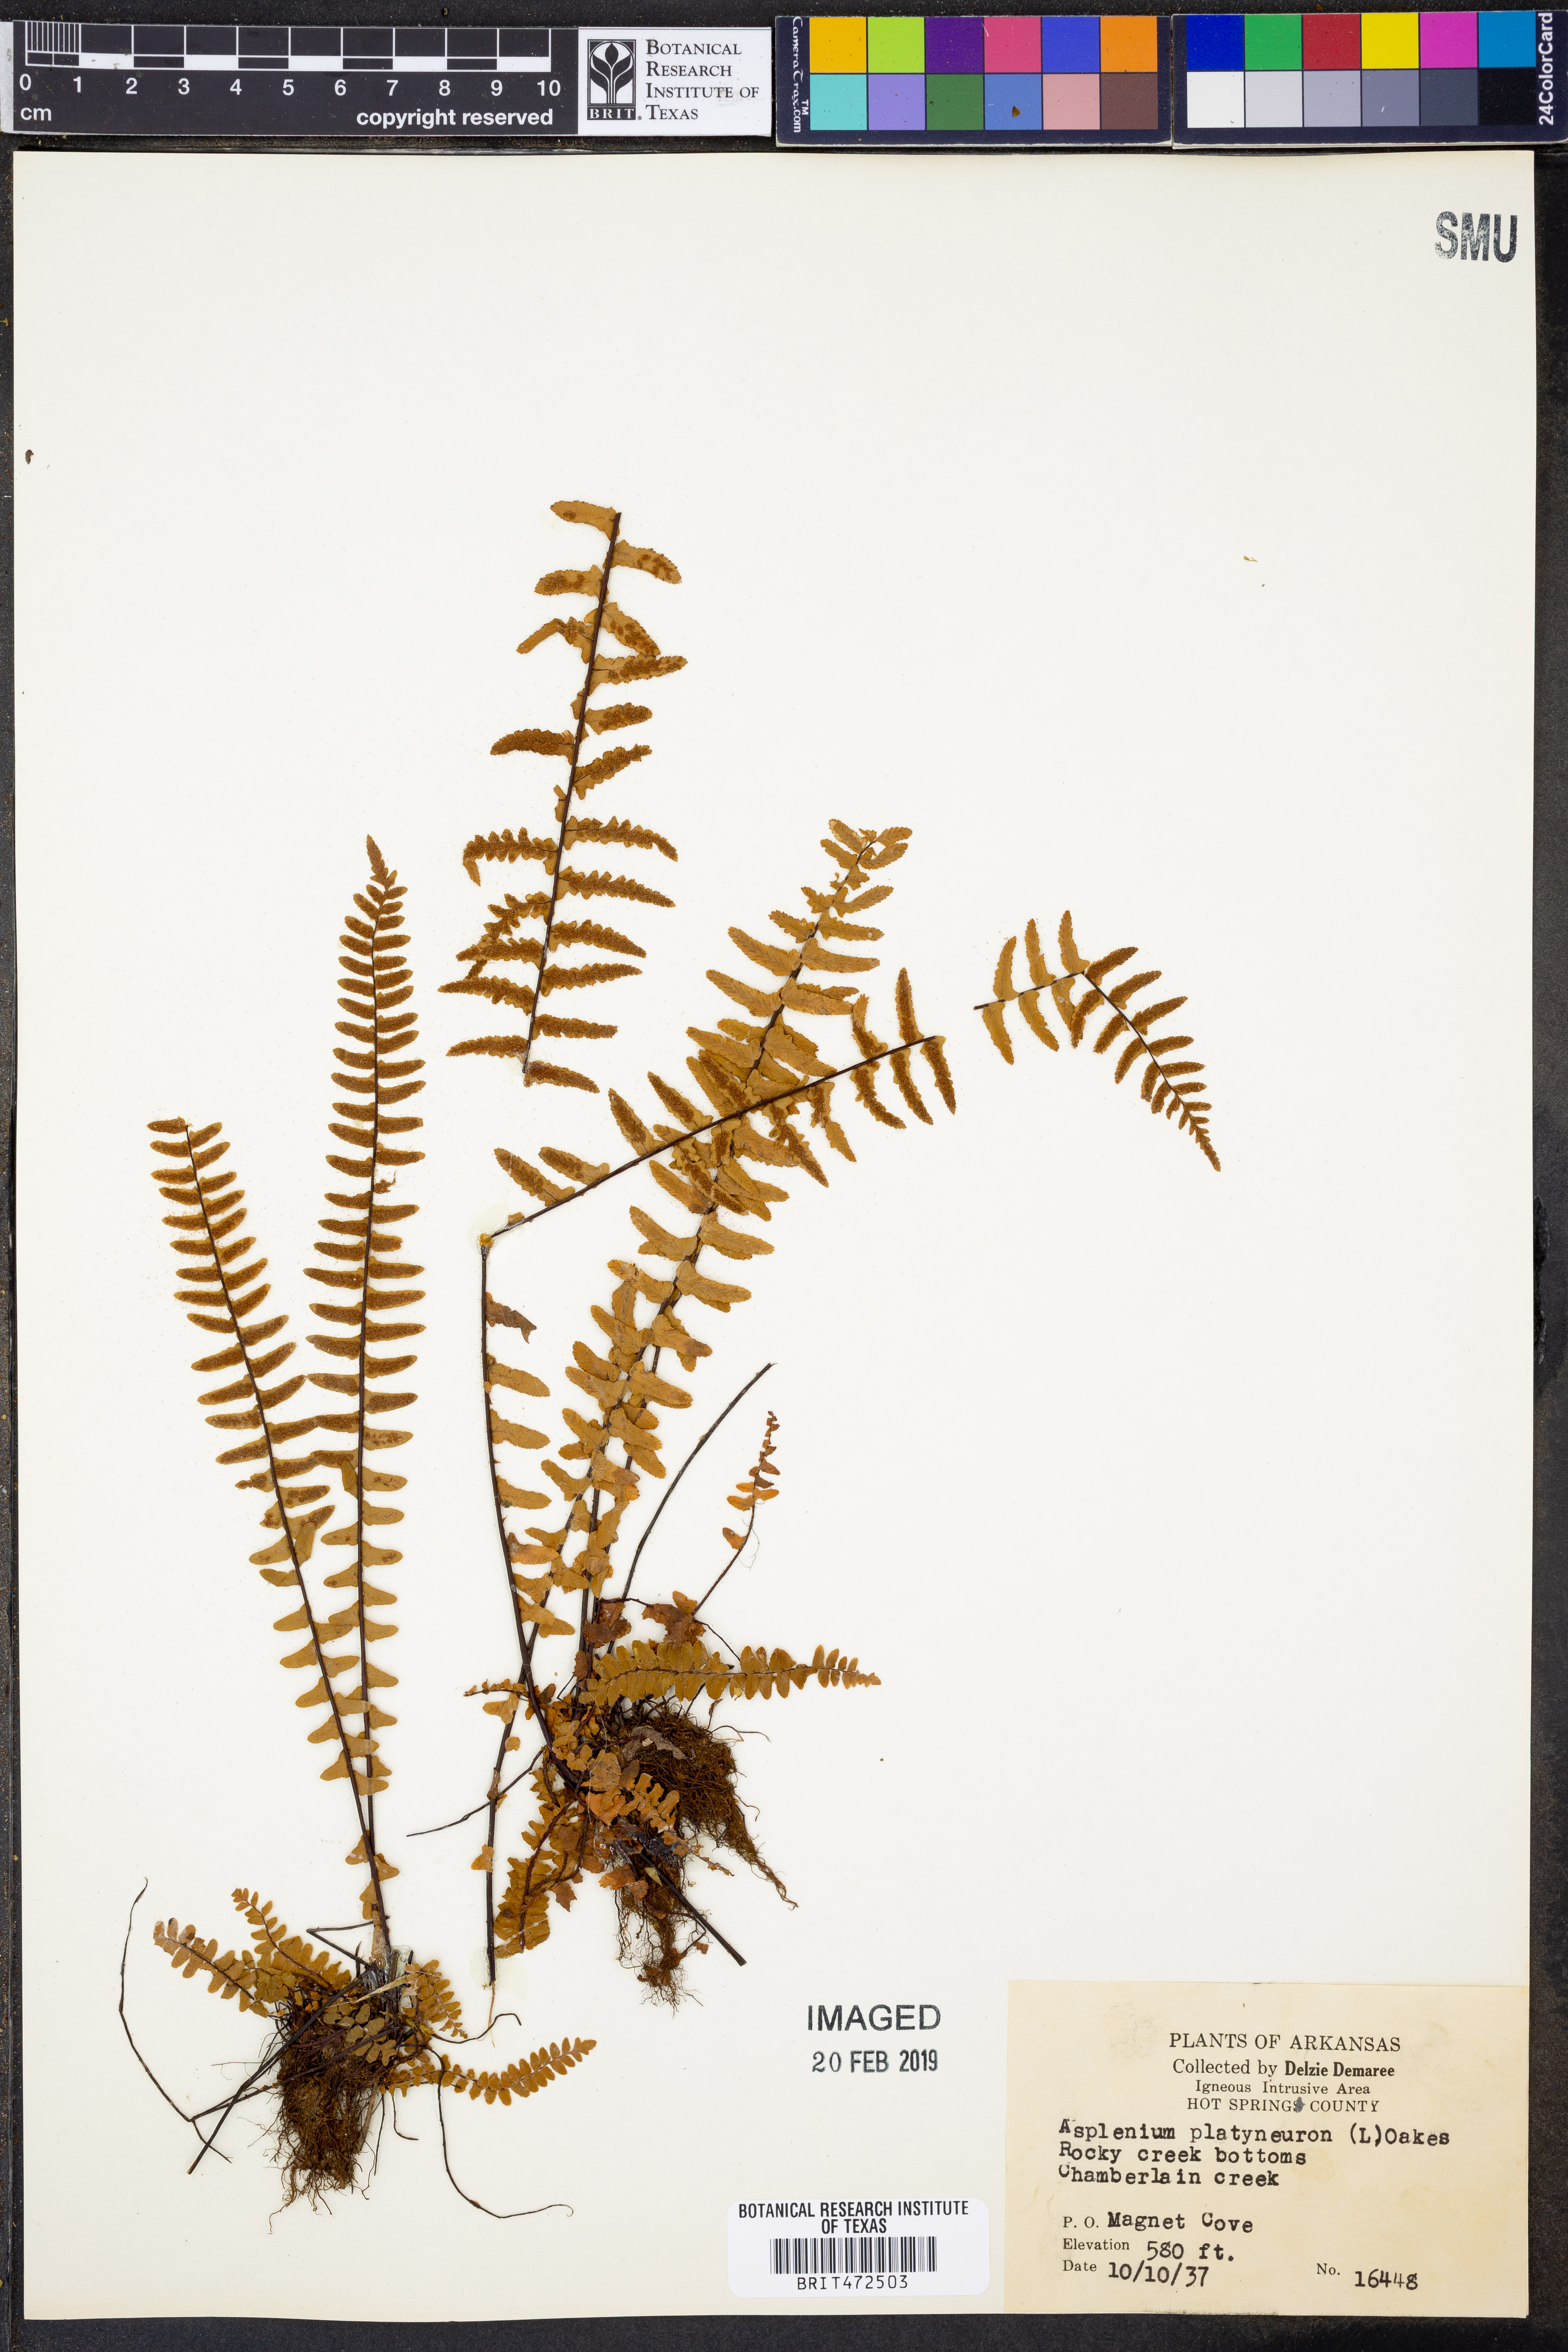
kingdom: Plantae
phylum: Tracheophyta
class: Polypodiopsida
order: Polypodiales
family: Aspleniaceae
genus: Asplenium
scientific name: Asplenium platyneuron
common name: Ebony spleenwort
